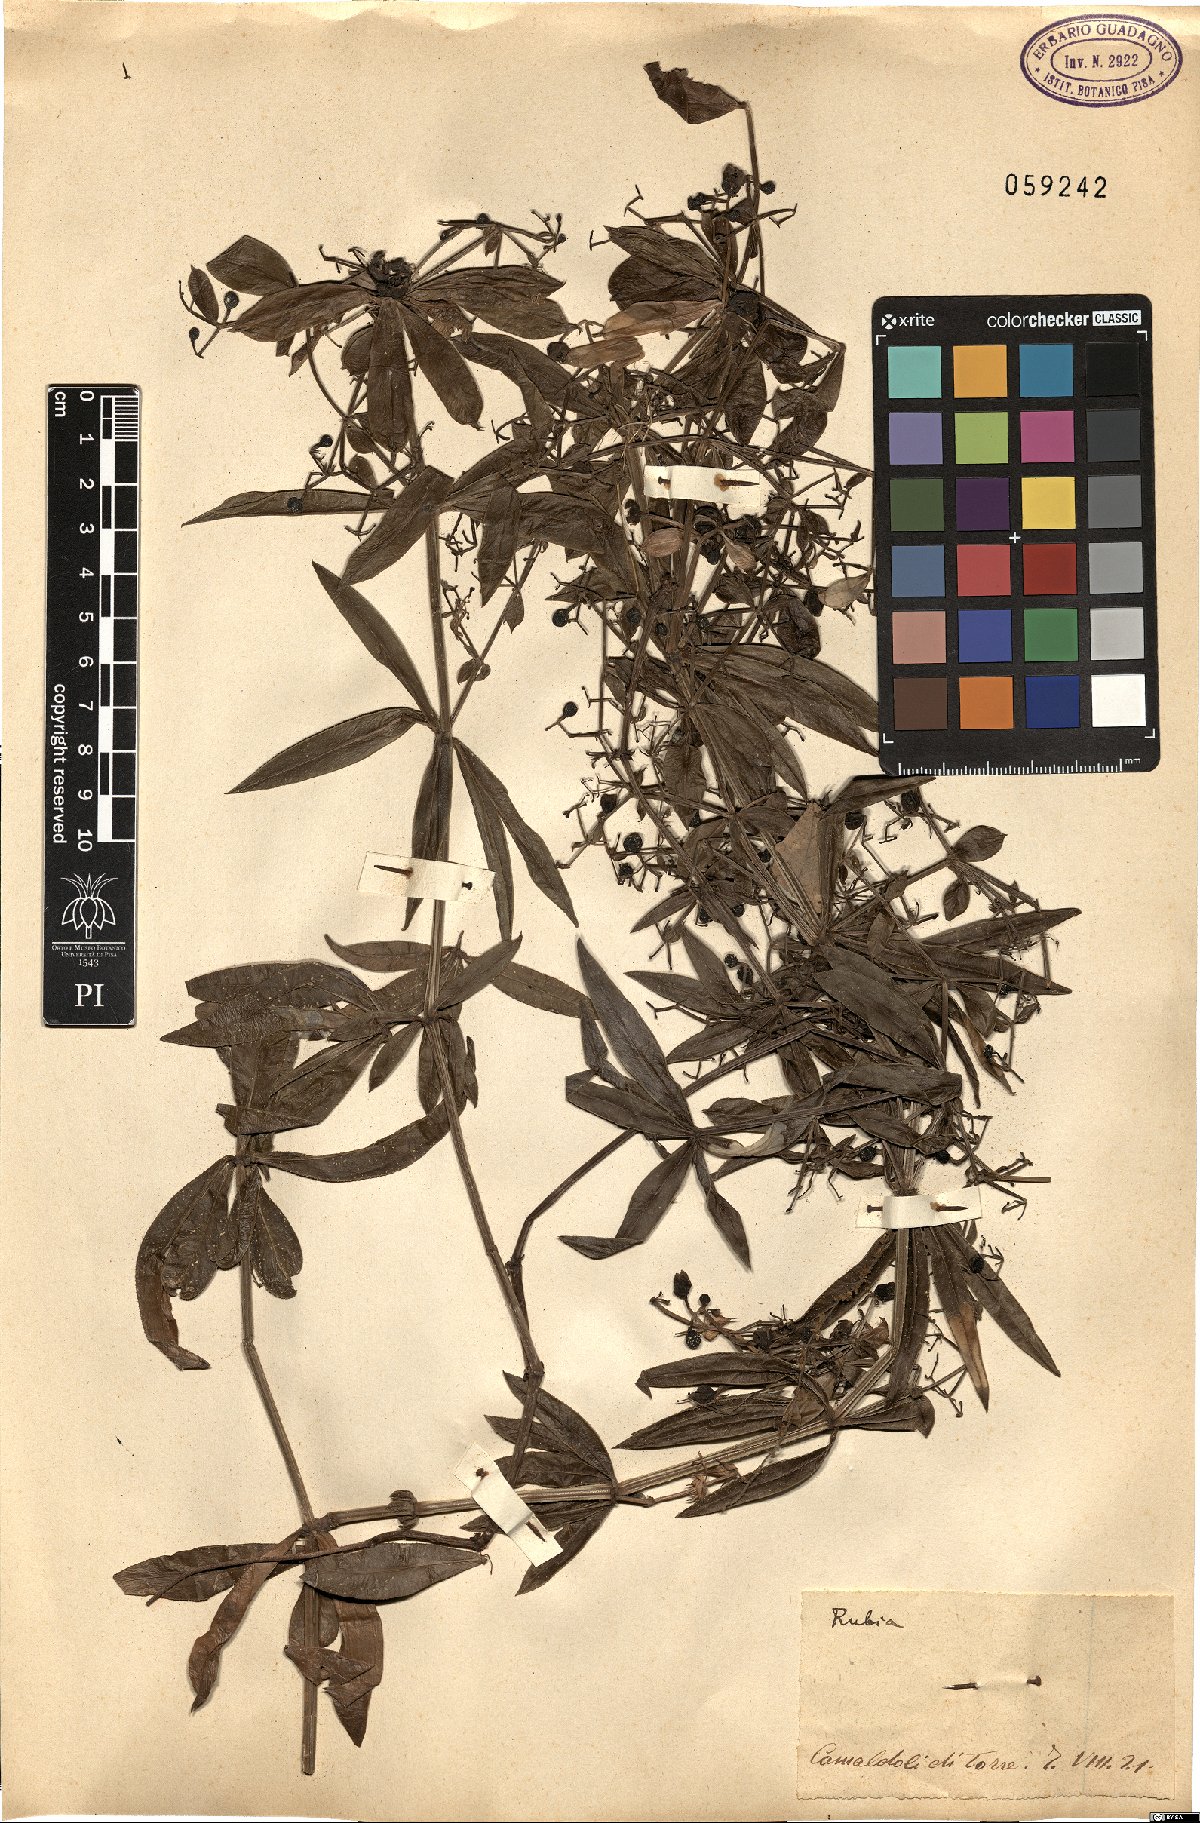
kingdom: Plantae
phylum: Tracheophyta
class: Magnoliopsida
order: Gentianales
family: Rubiaceae
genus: Rubia
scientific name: Rubia
